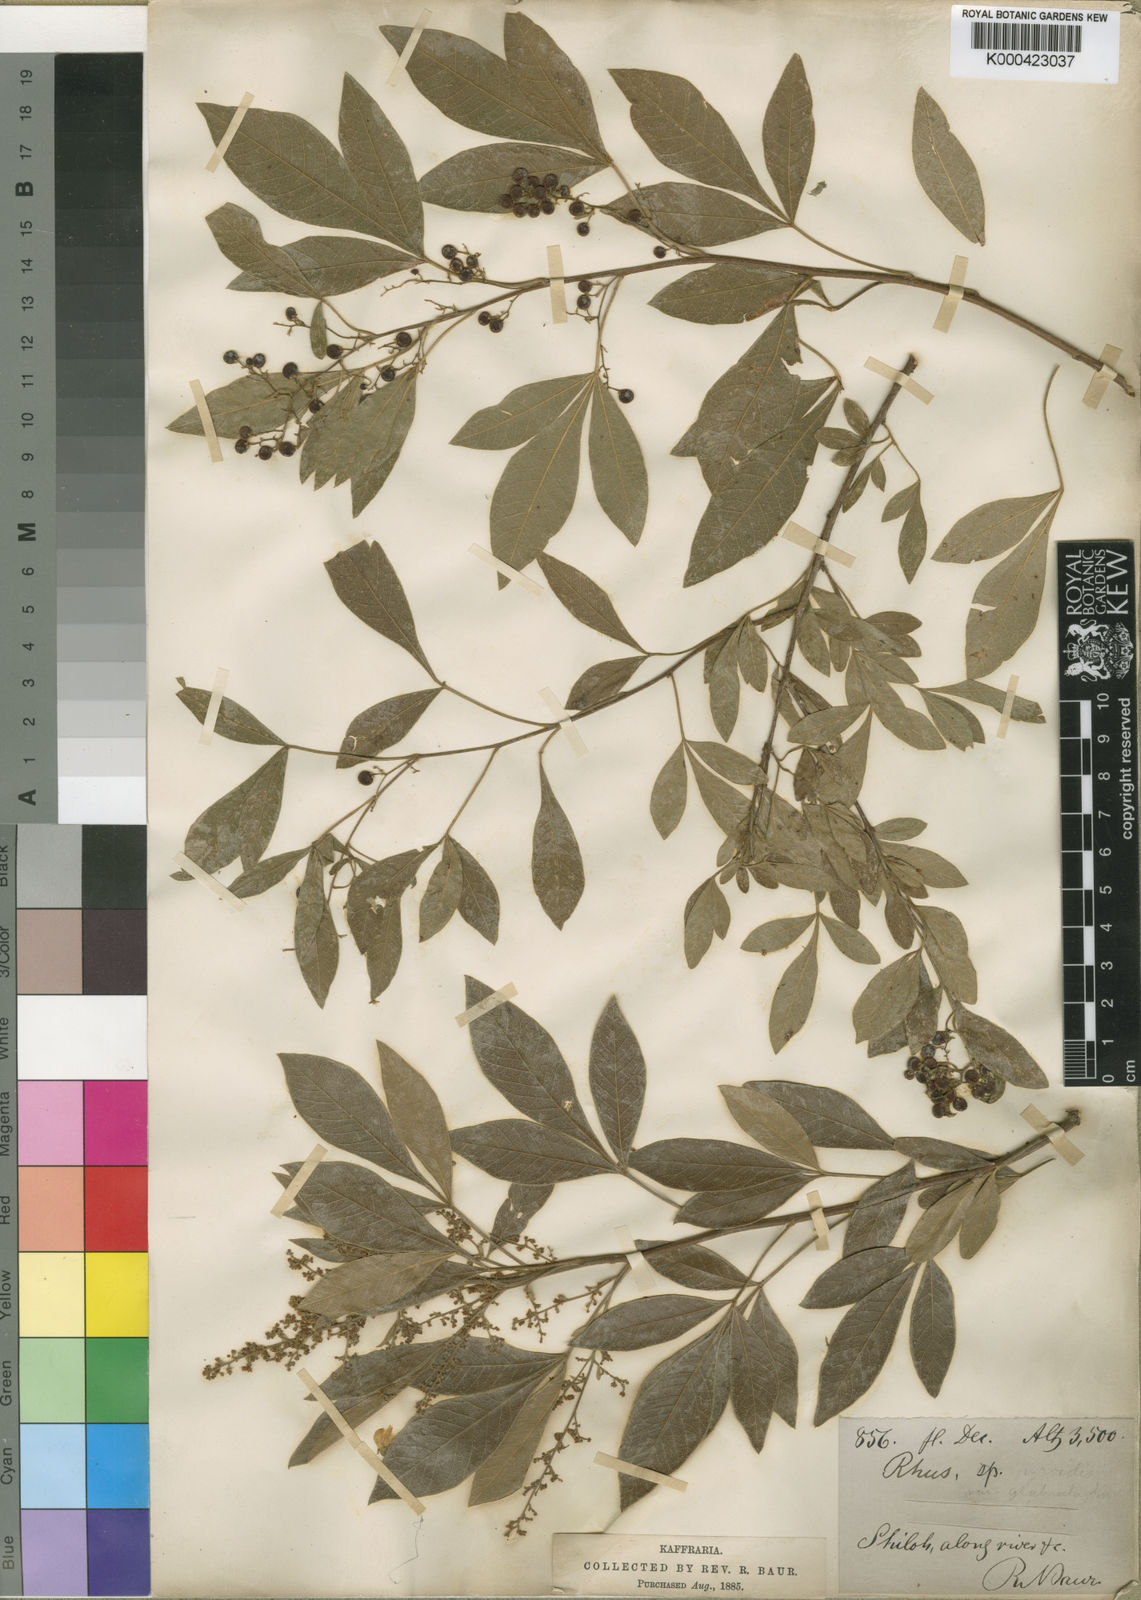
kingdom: Plantae
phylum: Tracheophyta
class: Magnoliopsida
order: Sapindales
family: Anacardiaceae
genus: Rhus
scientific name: Rhus
